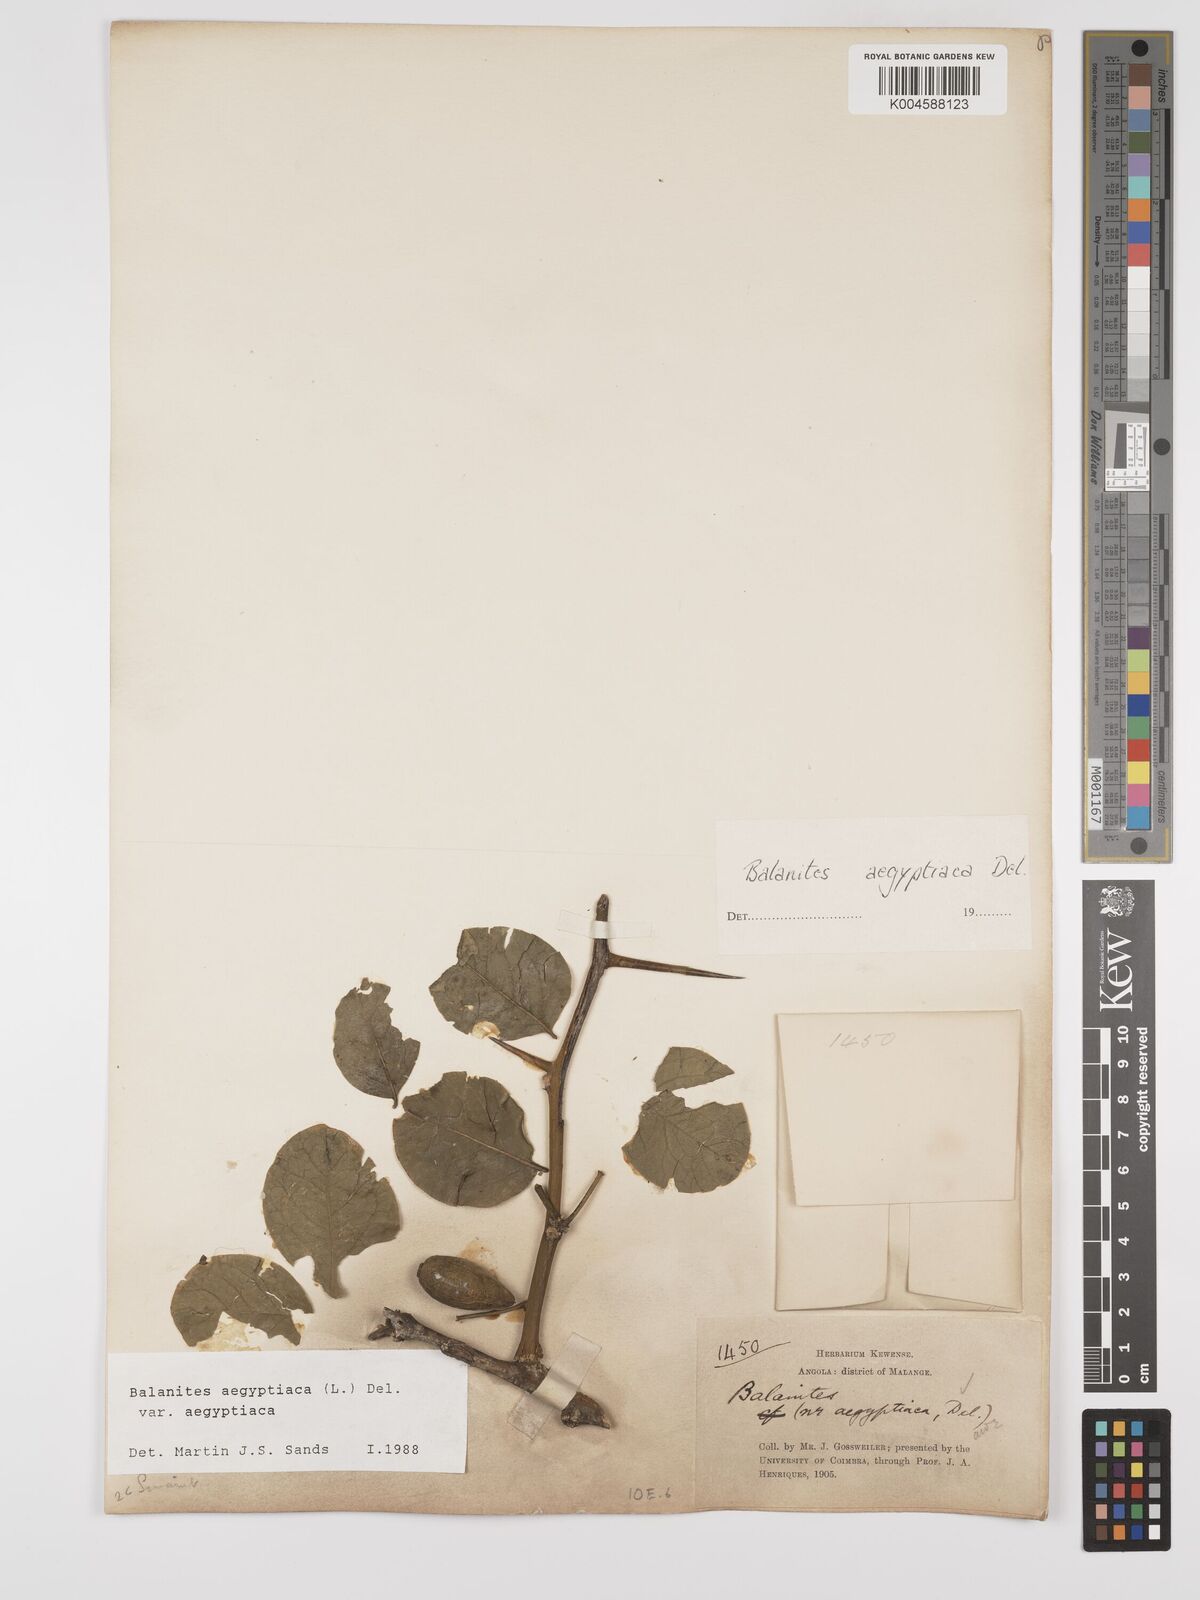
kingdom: Plantae
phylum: Tracheophyta
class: Magnoliopsida
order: Zygophyllales
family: Zygophyllaceae
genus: Balanites
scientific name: Balanites aegyptiaca
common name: Balanites
